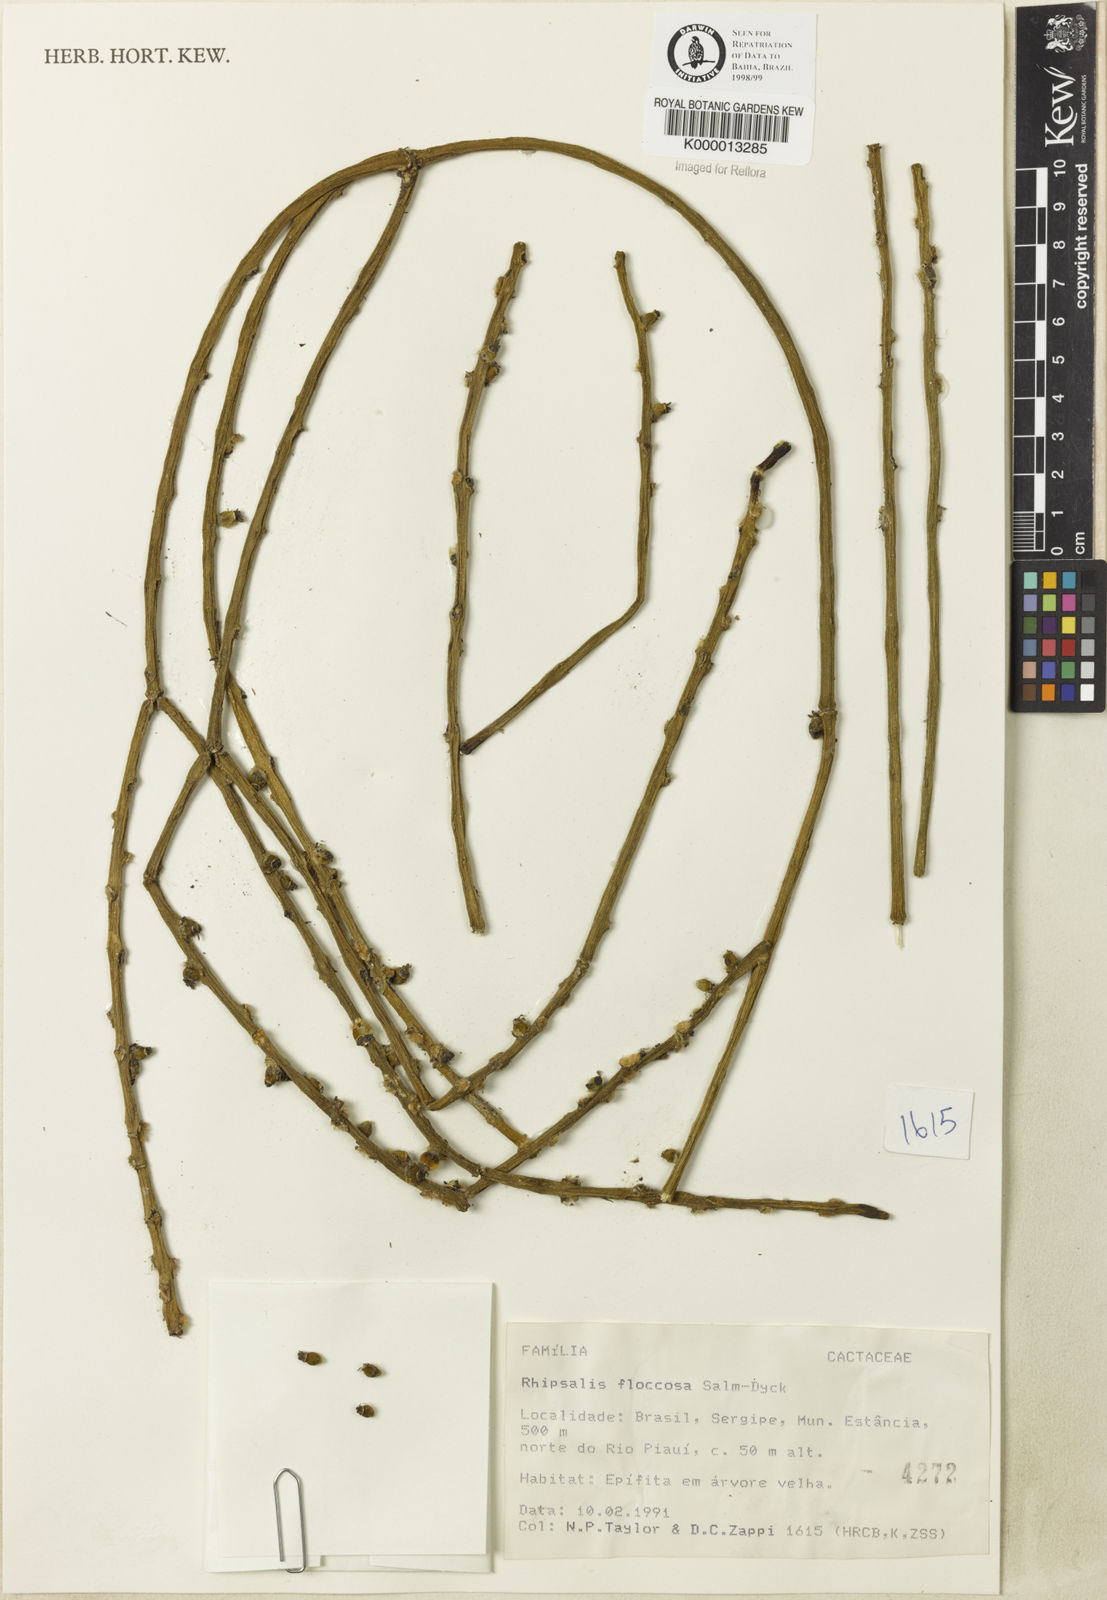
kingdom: Plantae
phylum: Tracheophyta
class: Magnoliopsida
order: Caryophyllales
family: Cactaceae
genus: Rhipsalis
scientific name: Rhipsalis floccosa
